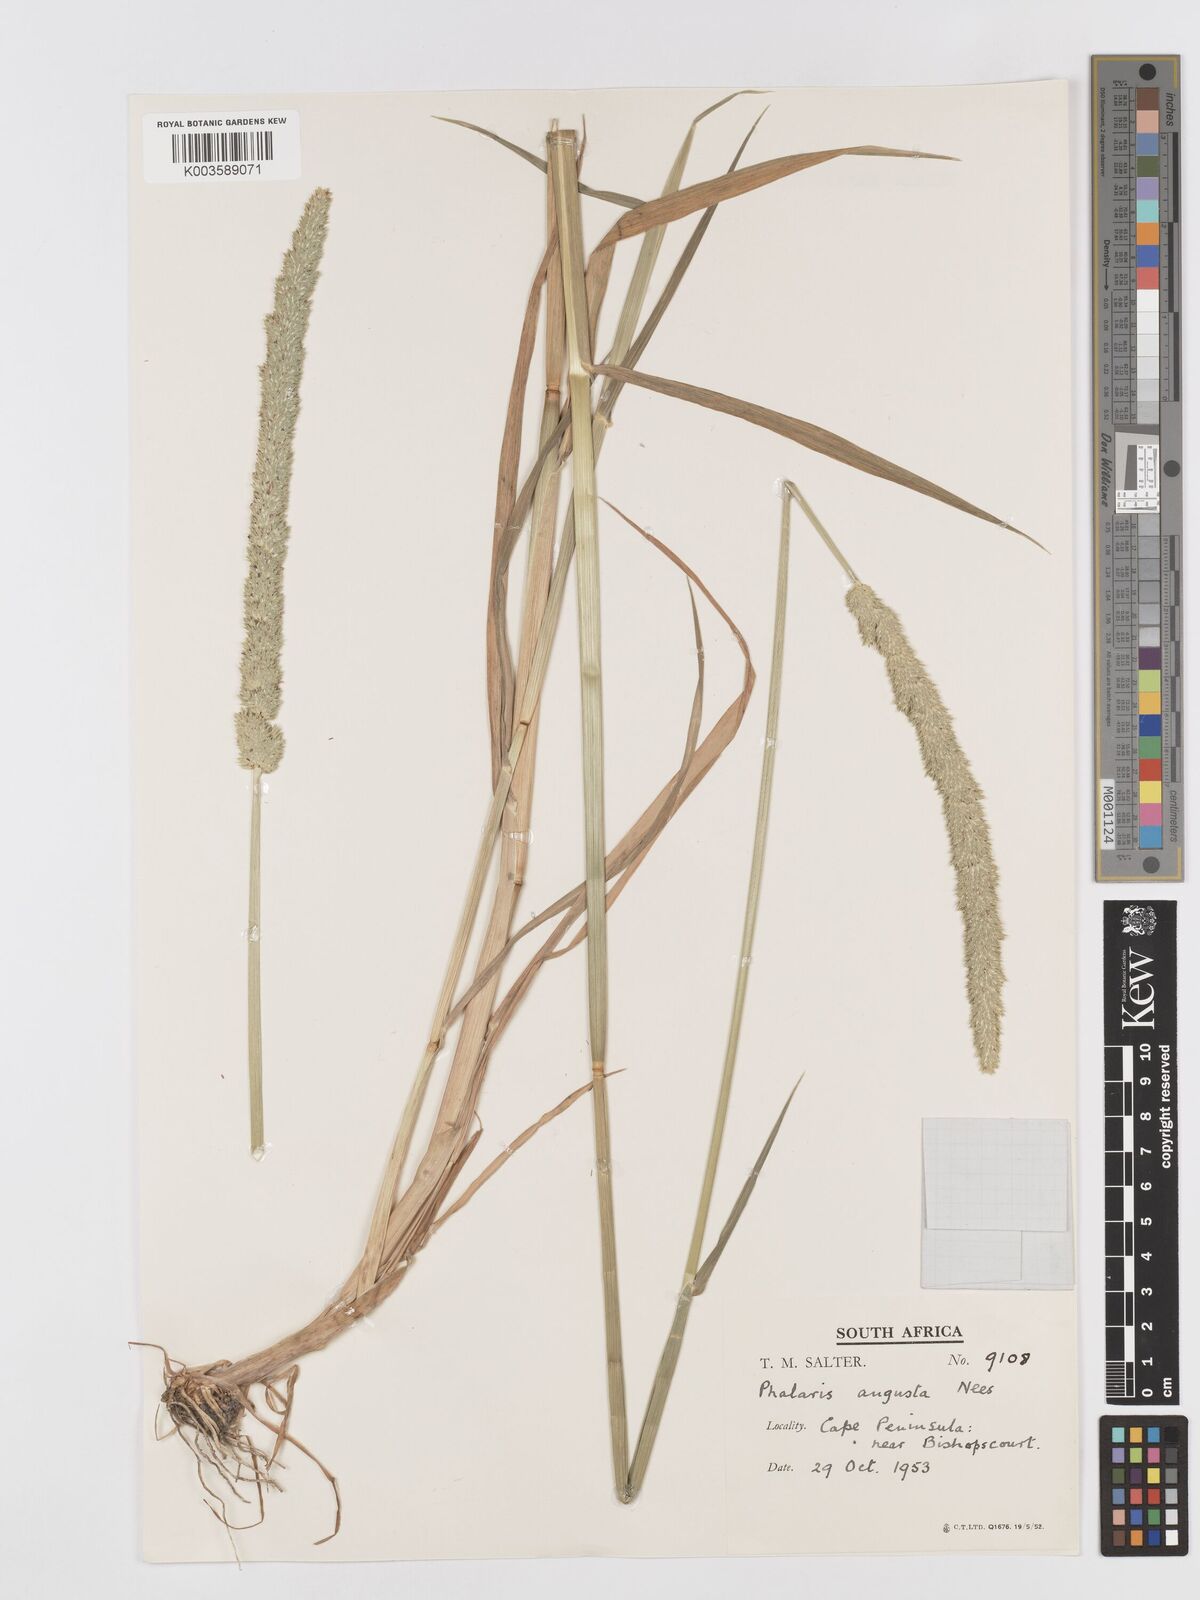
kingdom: Plantae
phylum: Tracheophyta
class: Liliopsida
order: Poales
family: Poaceae
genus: Phalaris
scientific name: Phalaris
